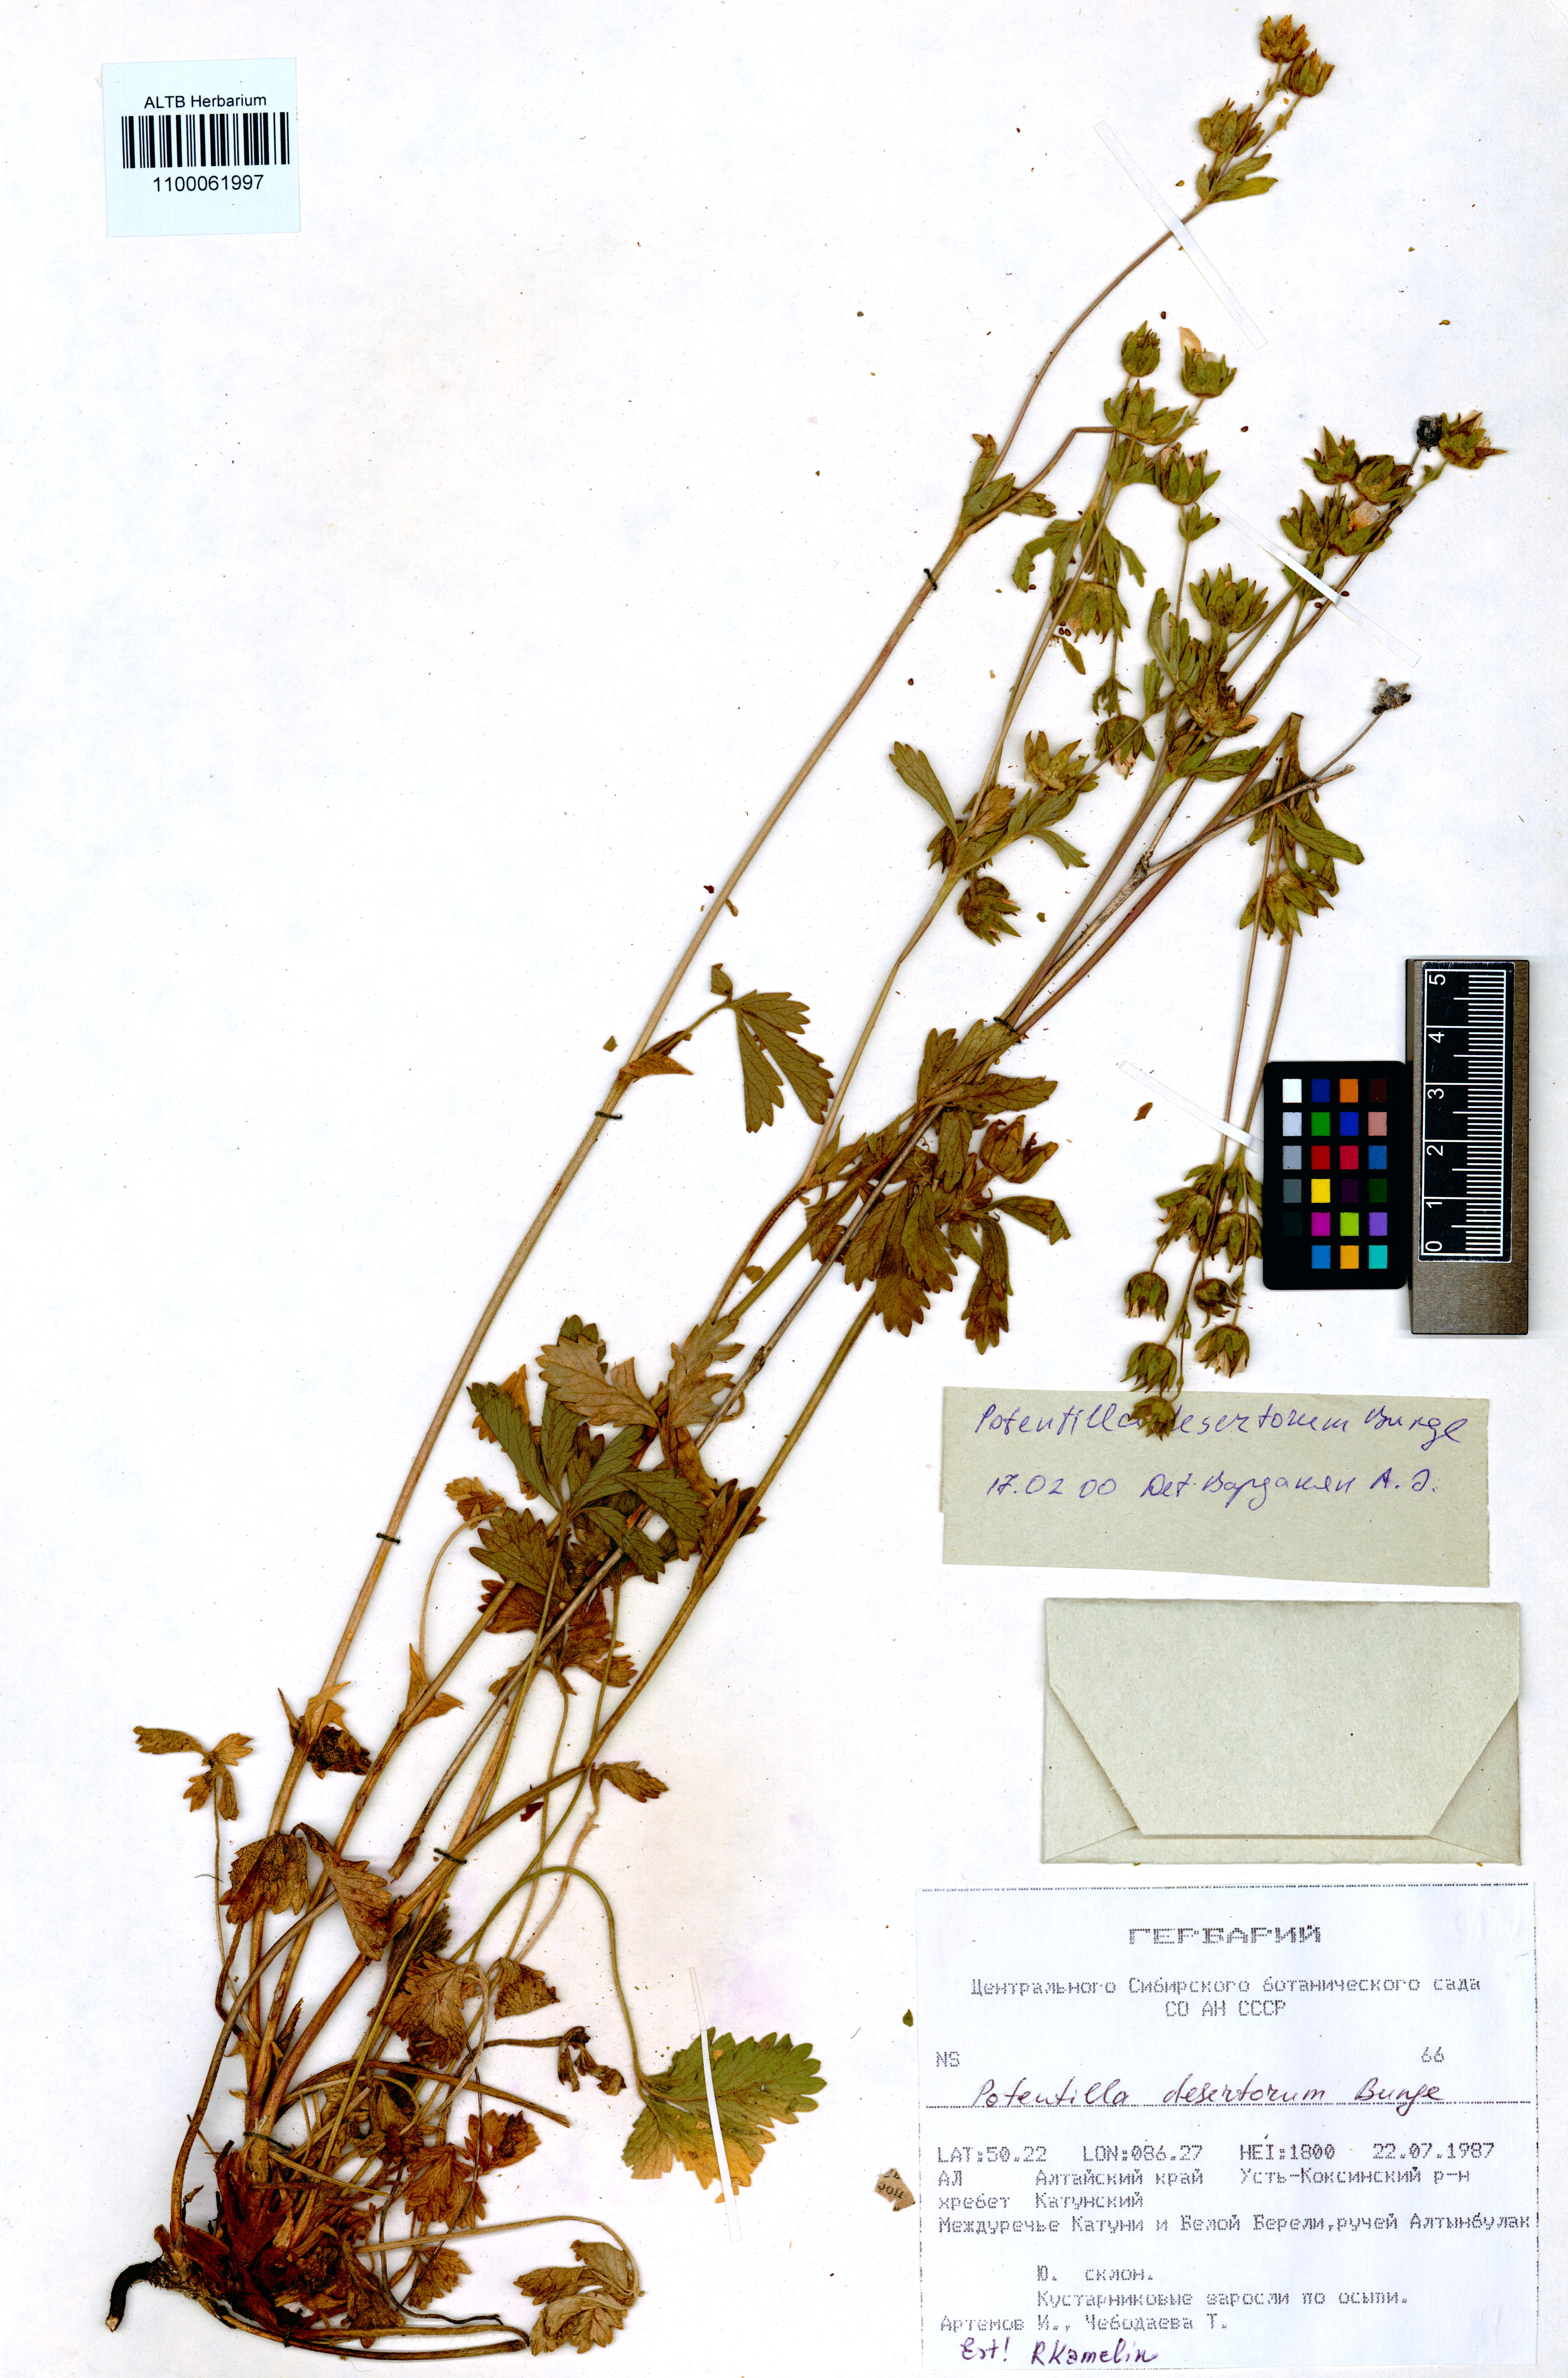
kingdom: Plantae
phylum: Tracheophyta
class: Magnoliopsida
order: Rosales
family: Rosaceae
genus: Potentilla
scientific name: Potentilla desertorum
